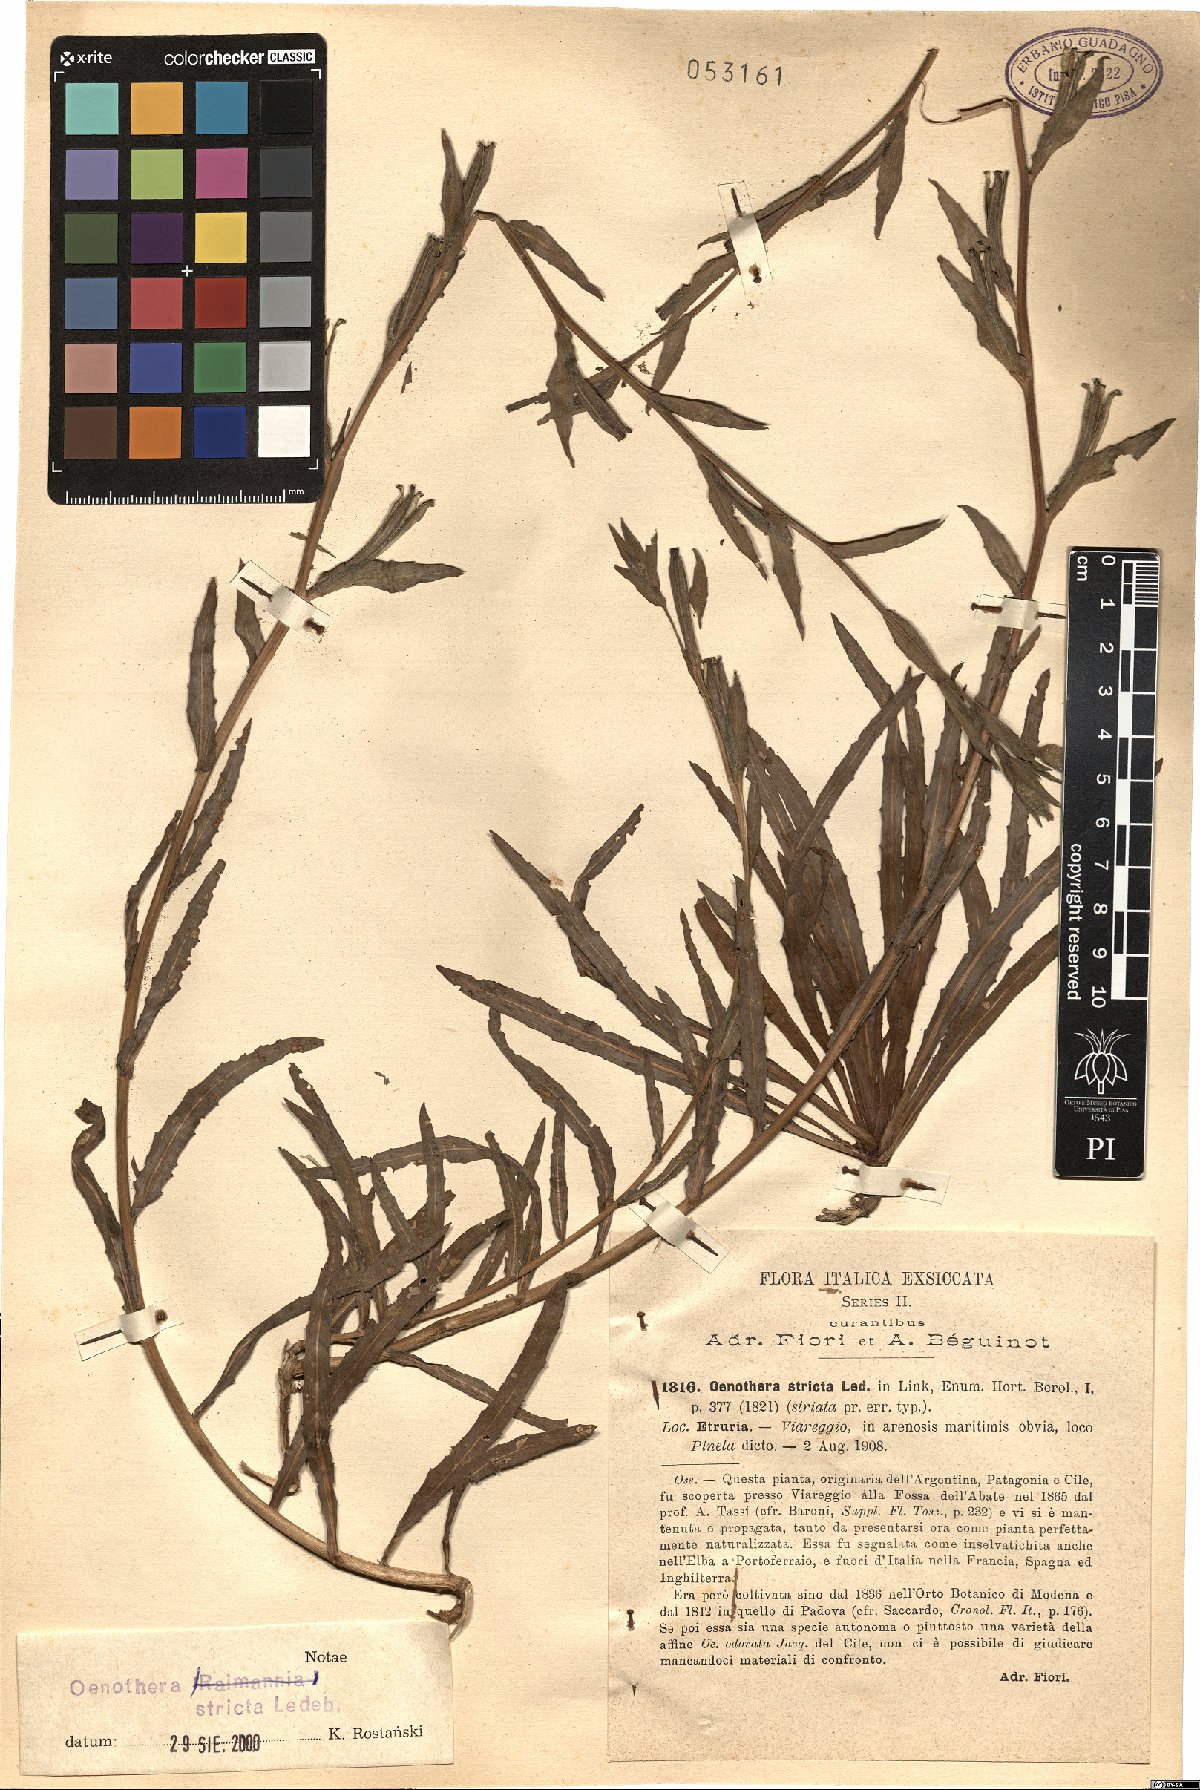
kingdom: Plantae
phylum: Tracheophyta
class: Magnoliopsida
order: Myrtales
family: Onagraceae
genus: Oenothera
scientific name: Oenothera stricta
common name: Fragrant evening-primrose
